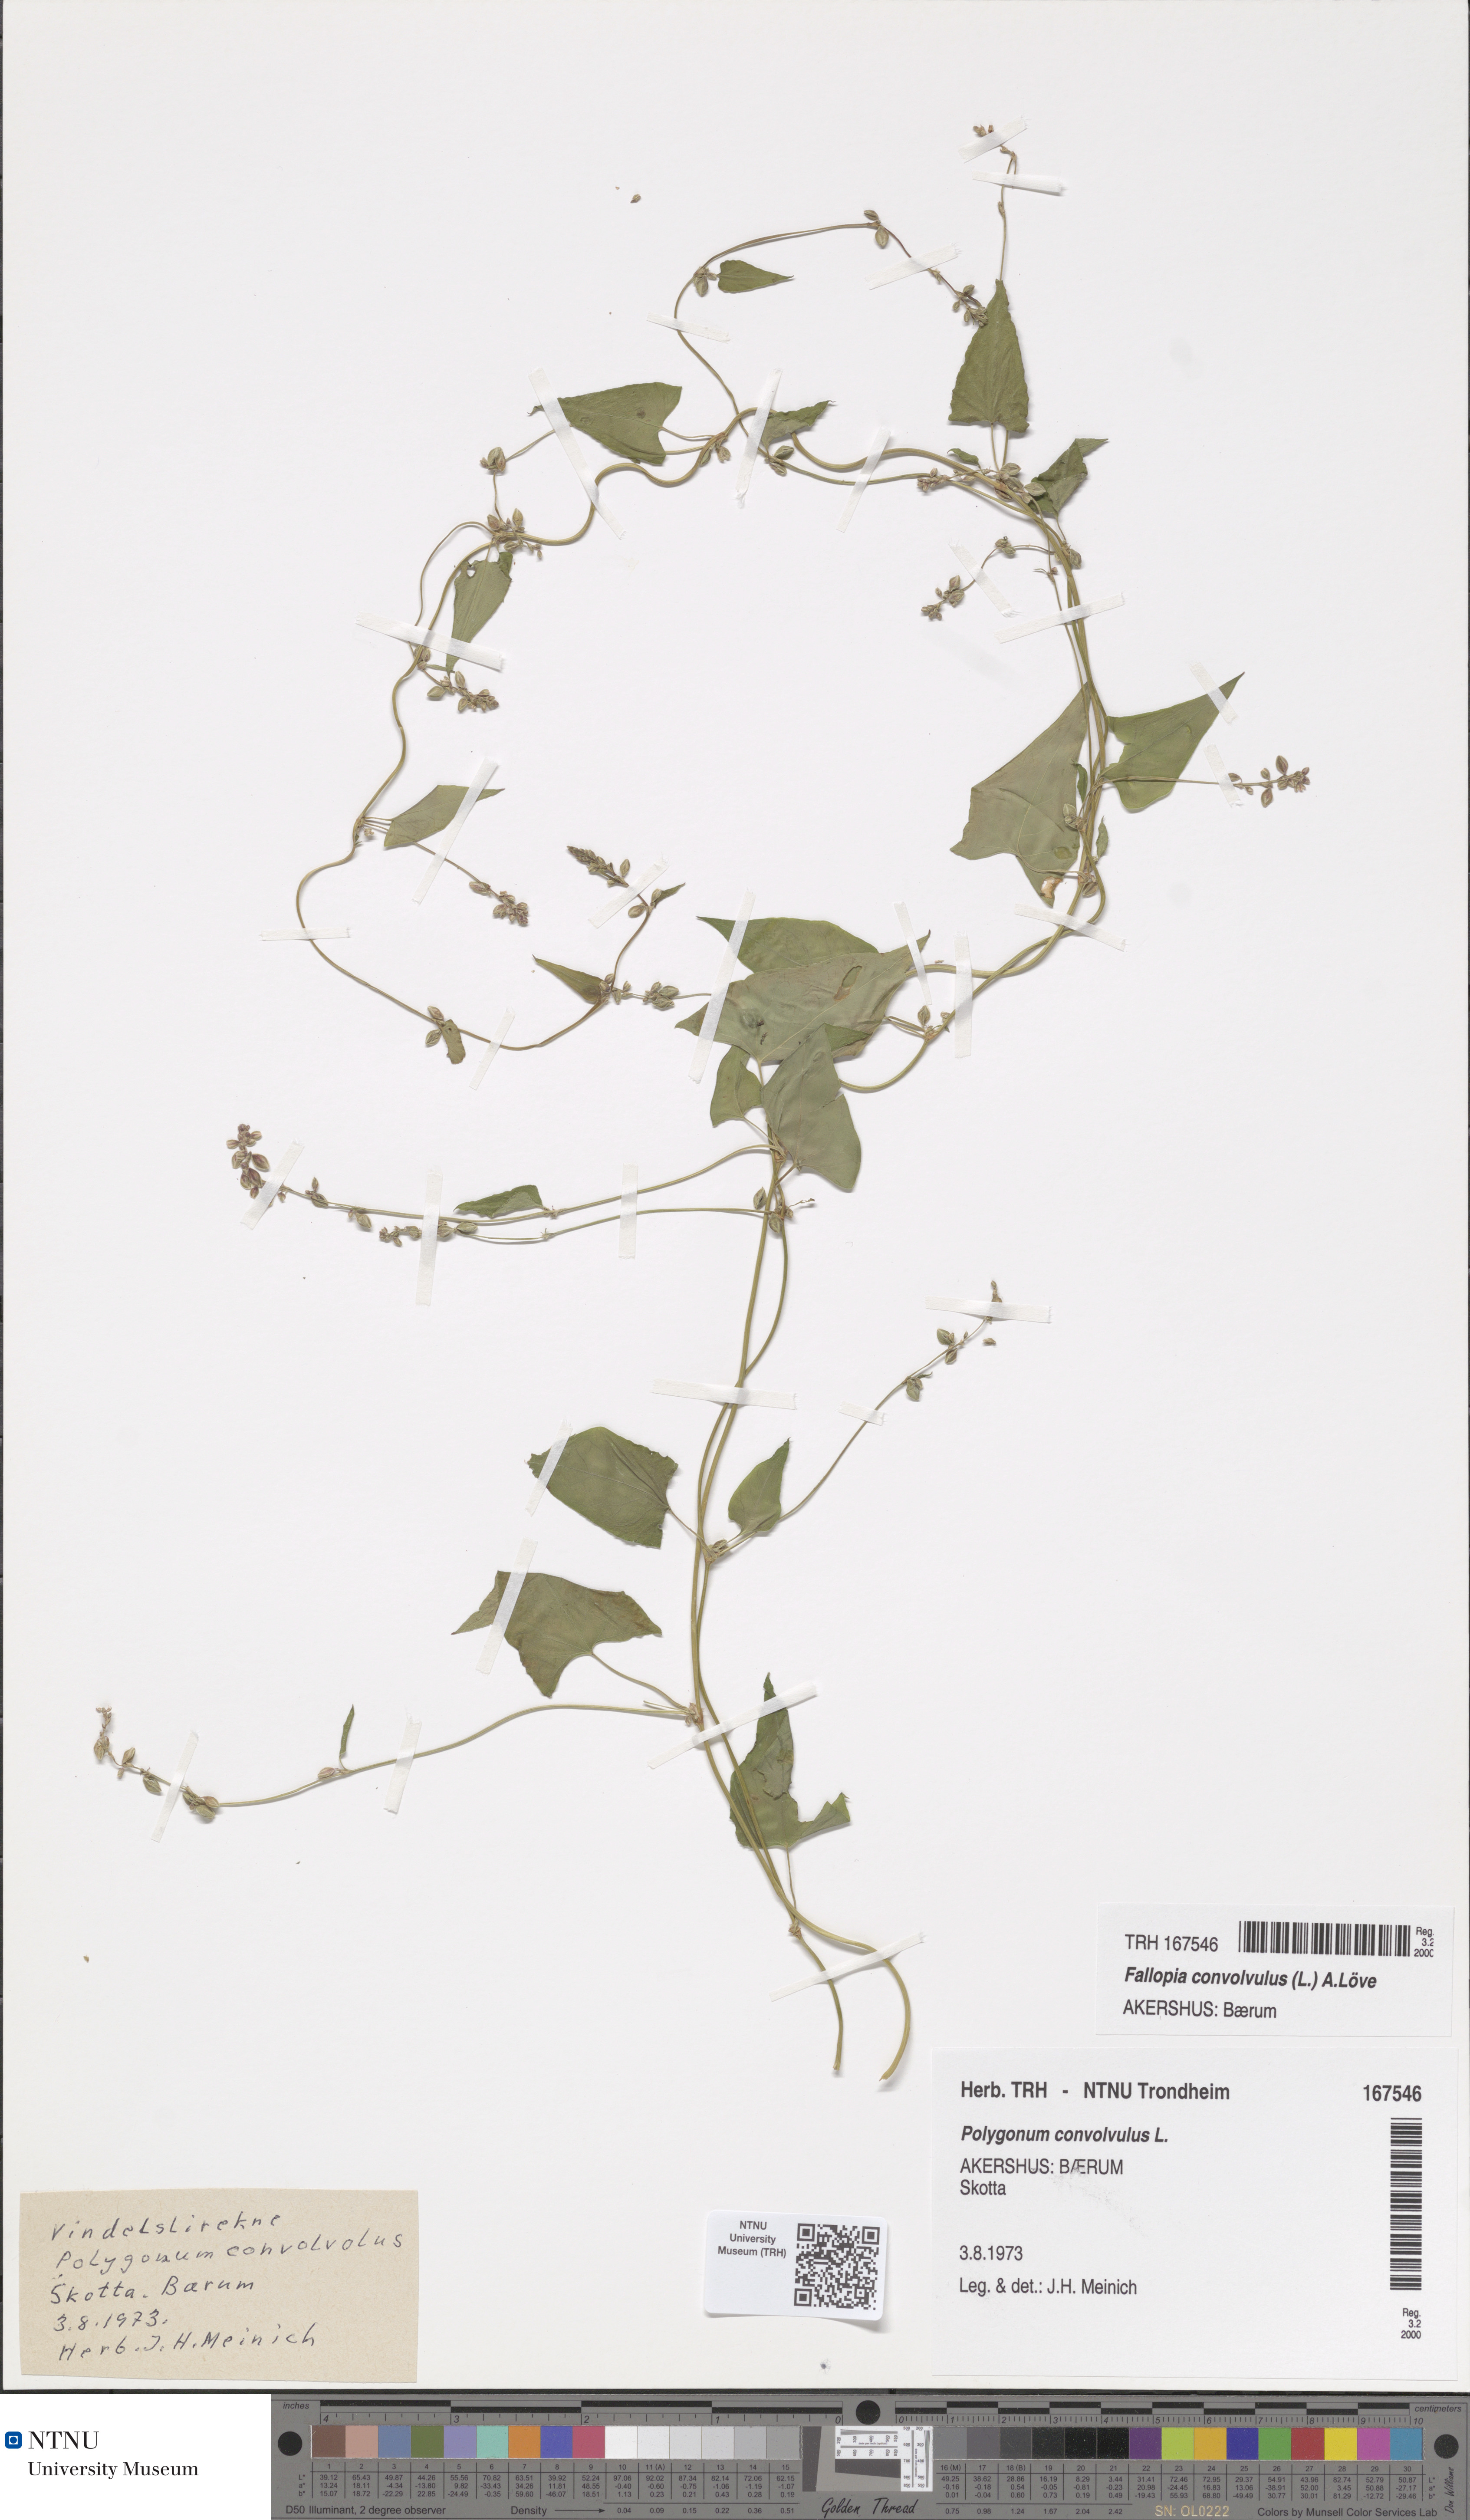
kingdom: Plantae
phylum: Tracheophyta
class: Magnoliopsida
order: Caryophyllales
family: Polygonaceae
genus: Fallopia
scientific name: Fallopia convolvulus
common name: Black bindweed
